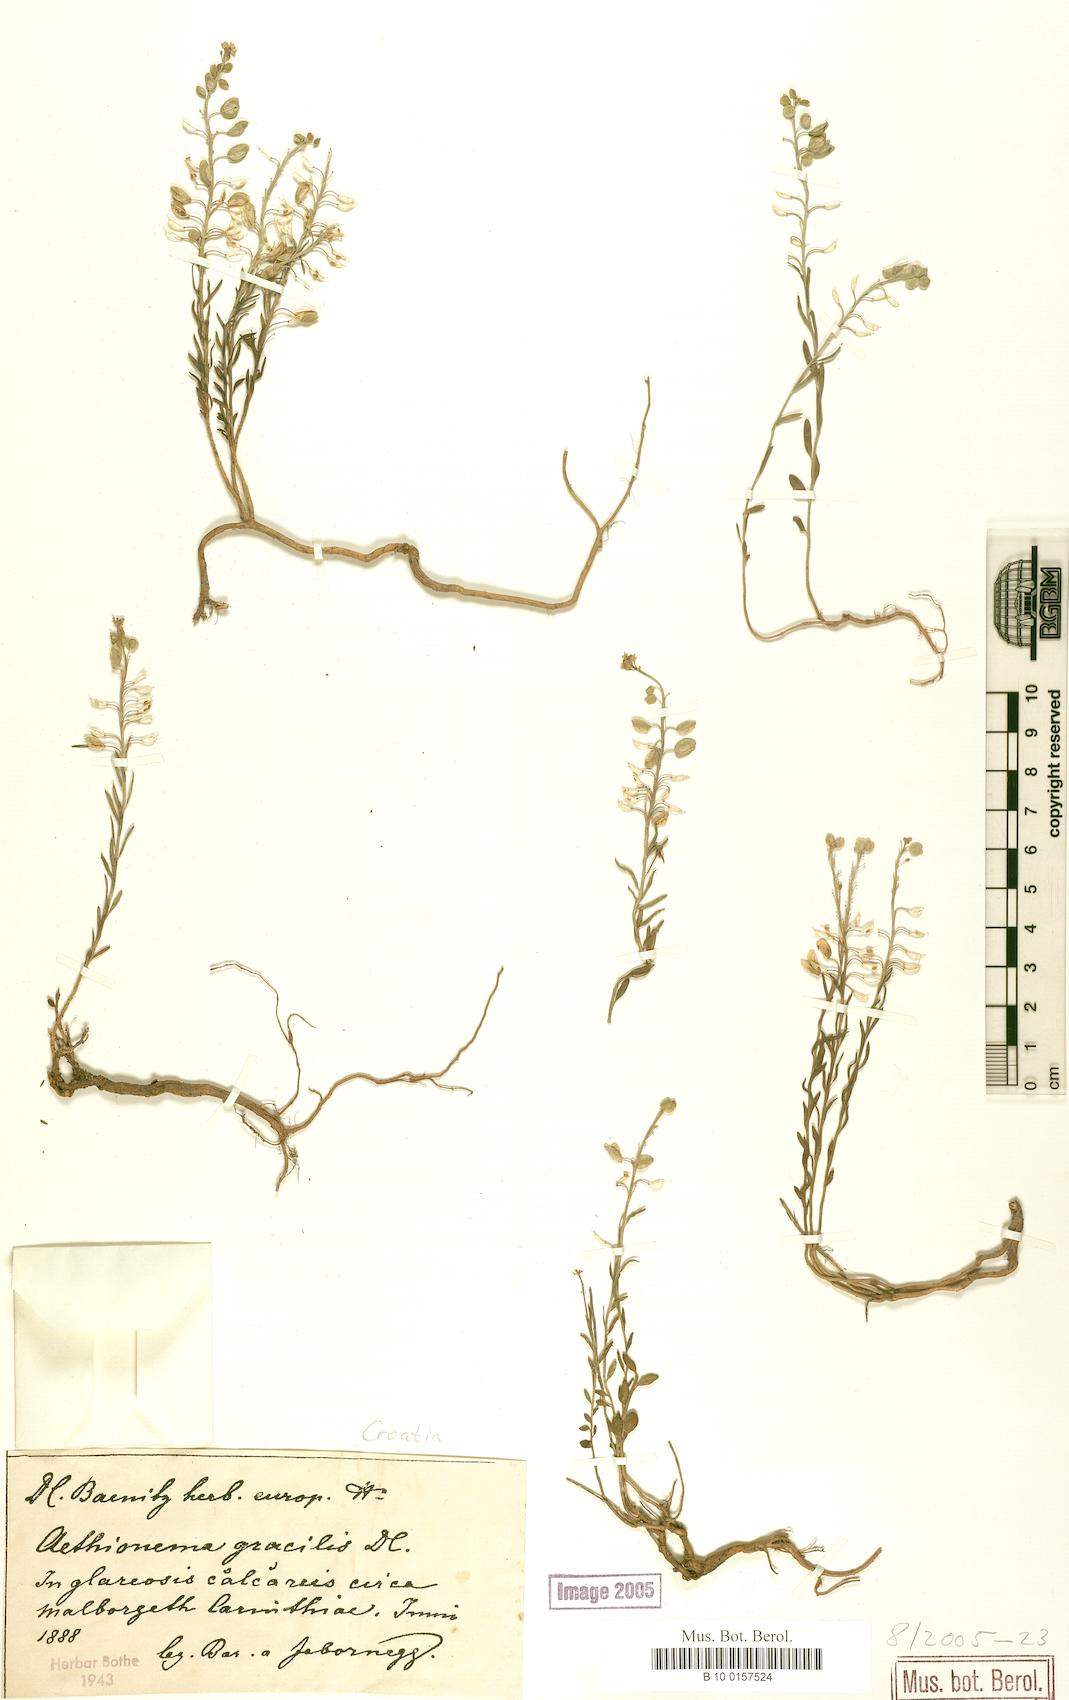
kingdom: Plantae
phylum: Tracheophyta
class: Magnoliopsida
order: Brassicales
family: Brassicaceae
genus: Aethionema
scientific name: Aethionema saxatile
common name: Burnt candytuft
